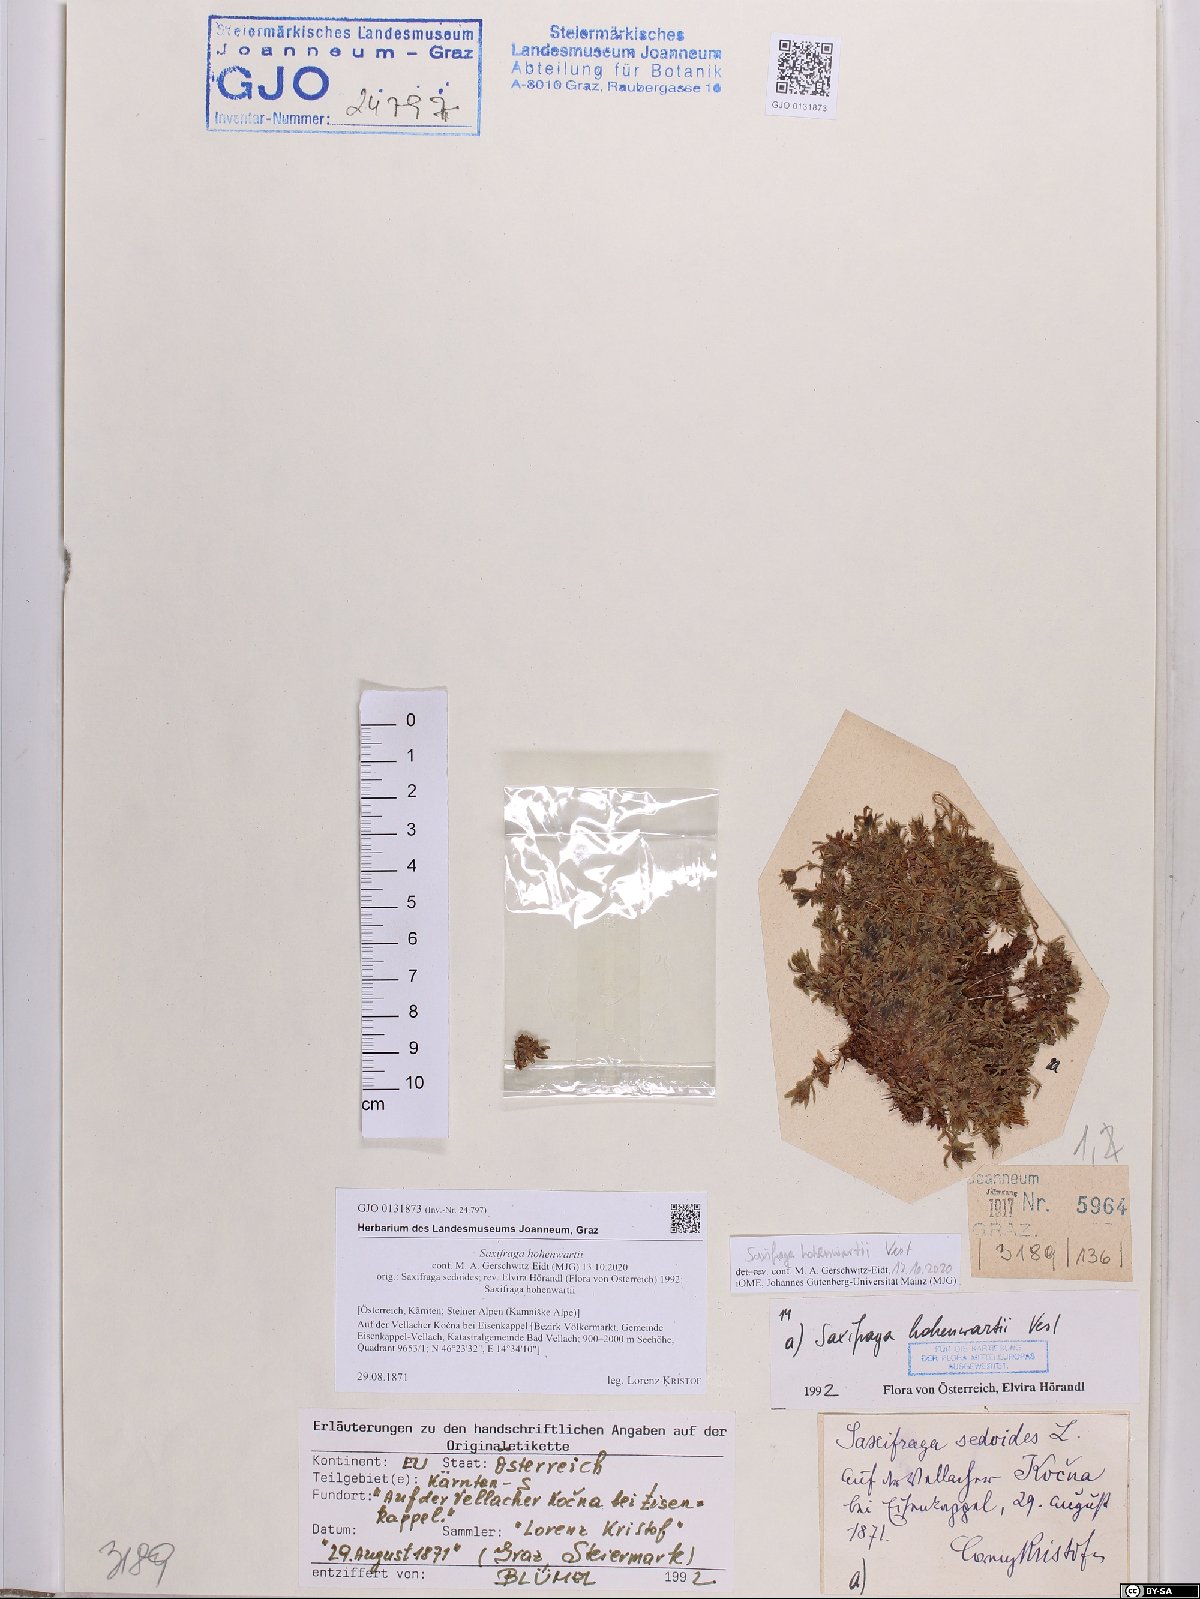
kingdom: Plantae
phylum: Tracheophyta
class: Magnoliopsida
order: Saxifragales
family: Saxifragaceae
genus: Saxifraga
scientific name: Saxifraga hohenwartii
